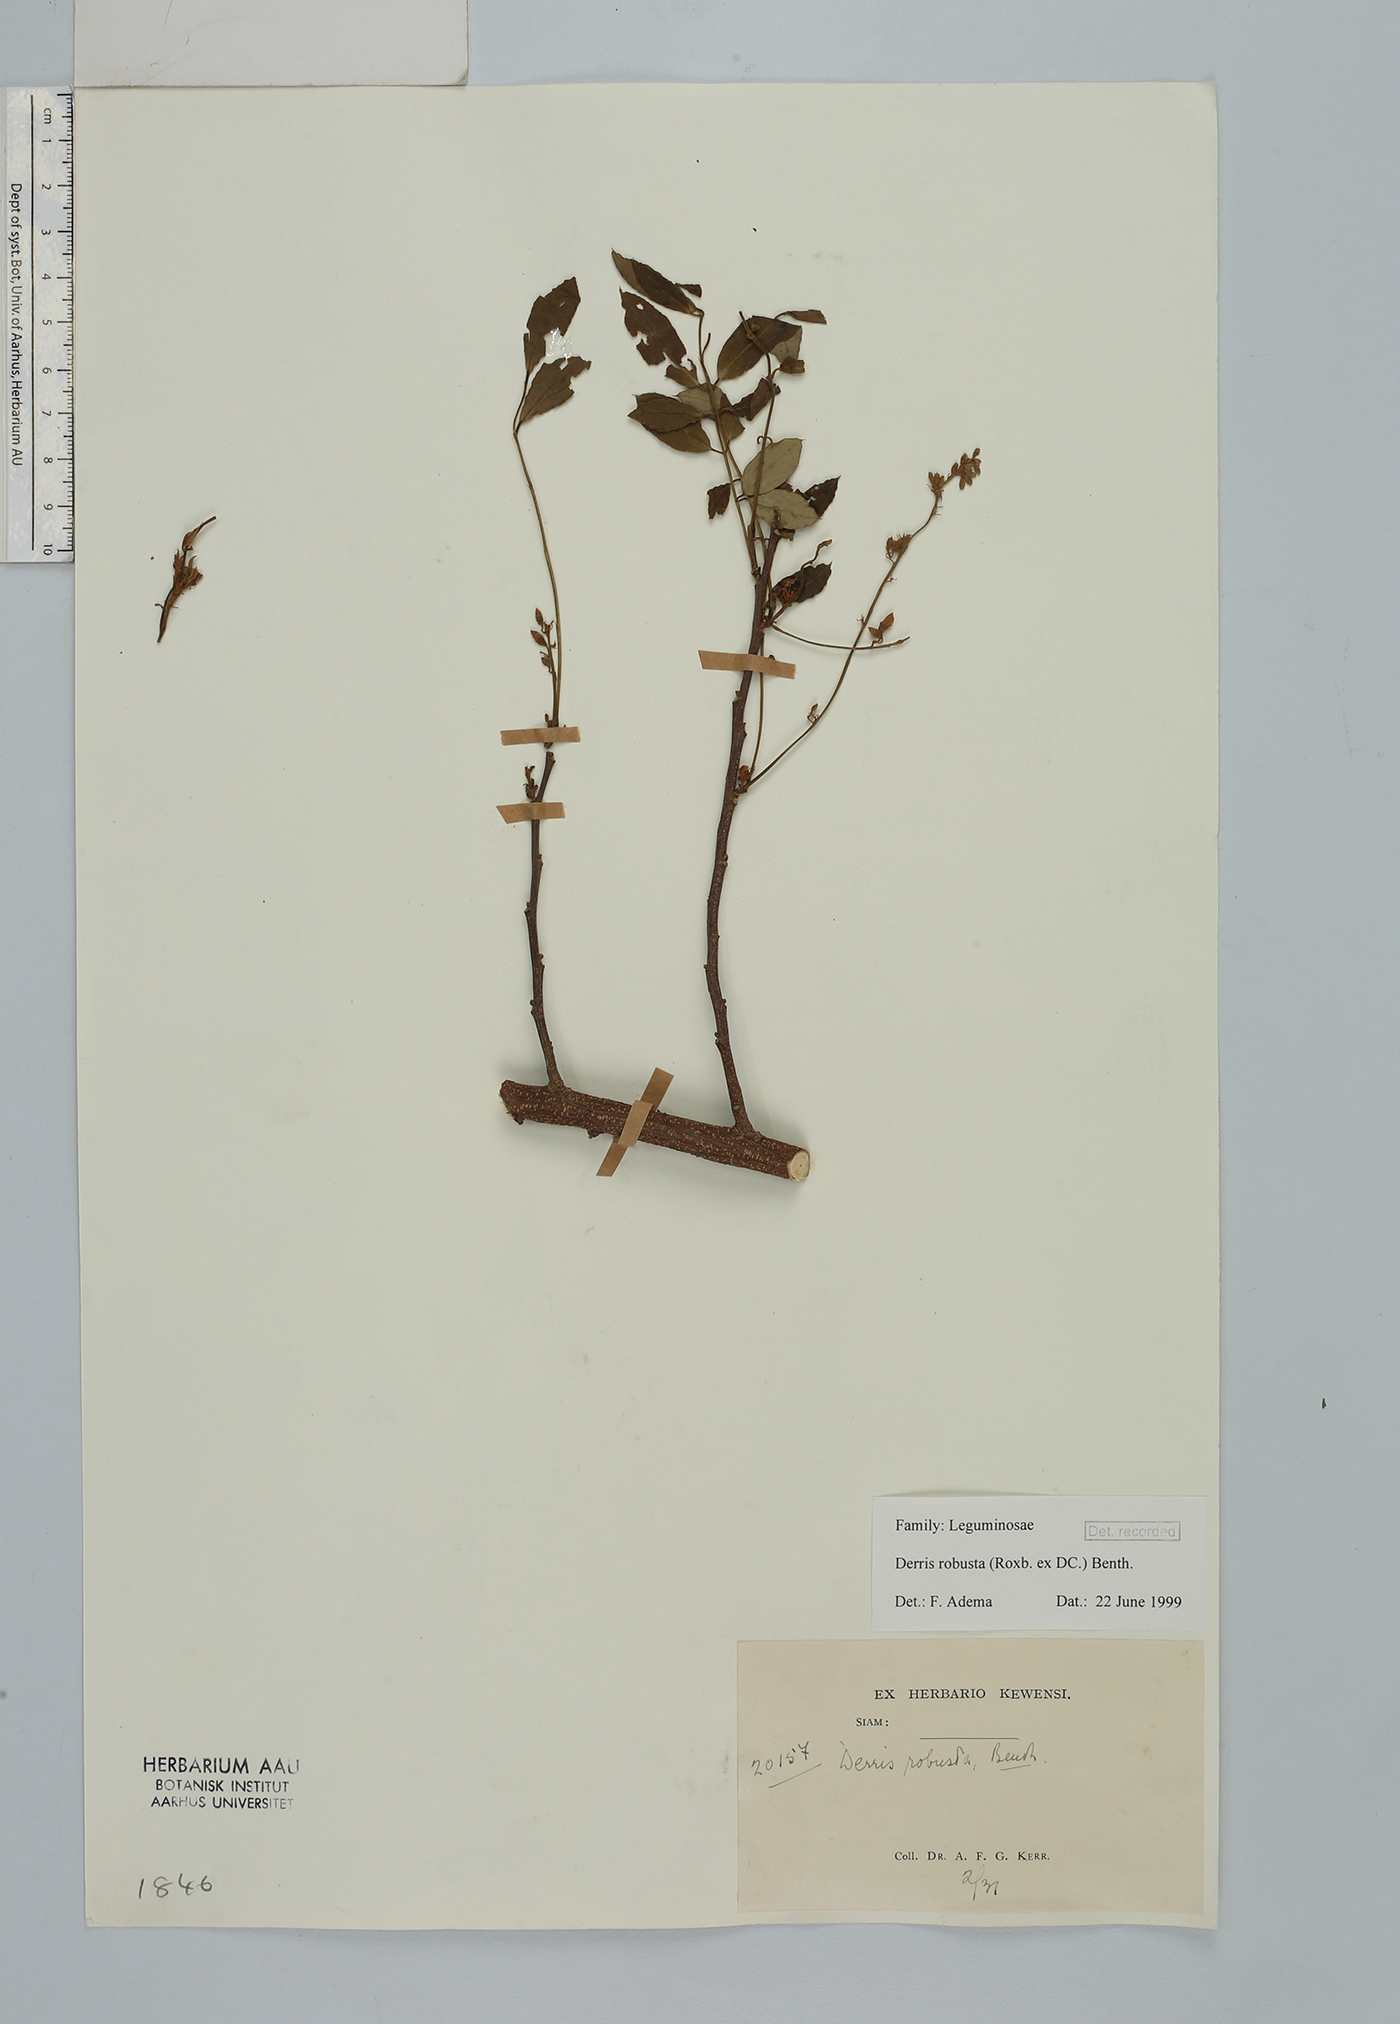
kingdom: Plantae
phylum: Tracheophyta
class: Magnoliopsida
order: Fabales
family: Fabaceae
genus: Brachypterum
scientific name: Brachypterum robustum
